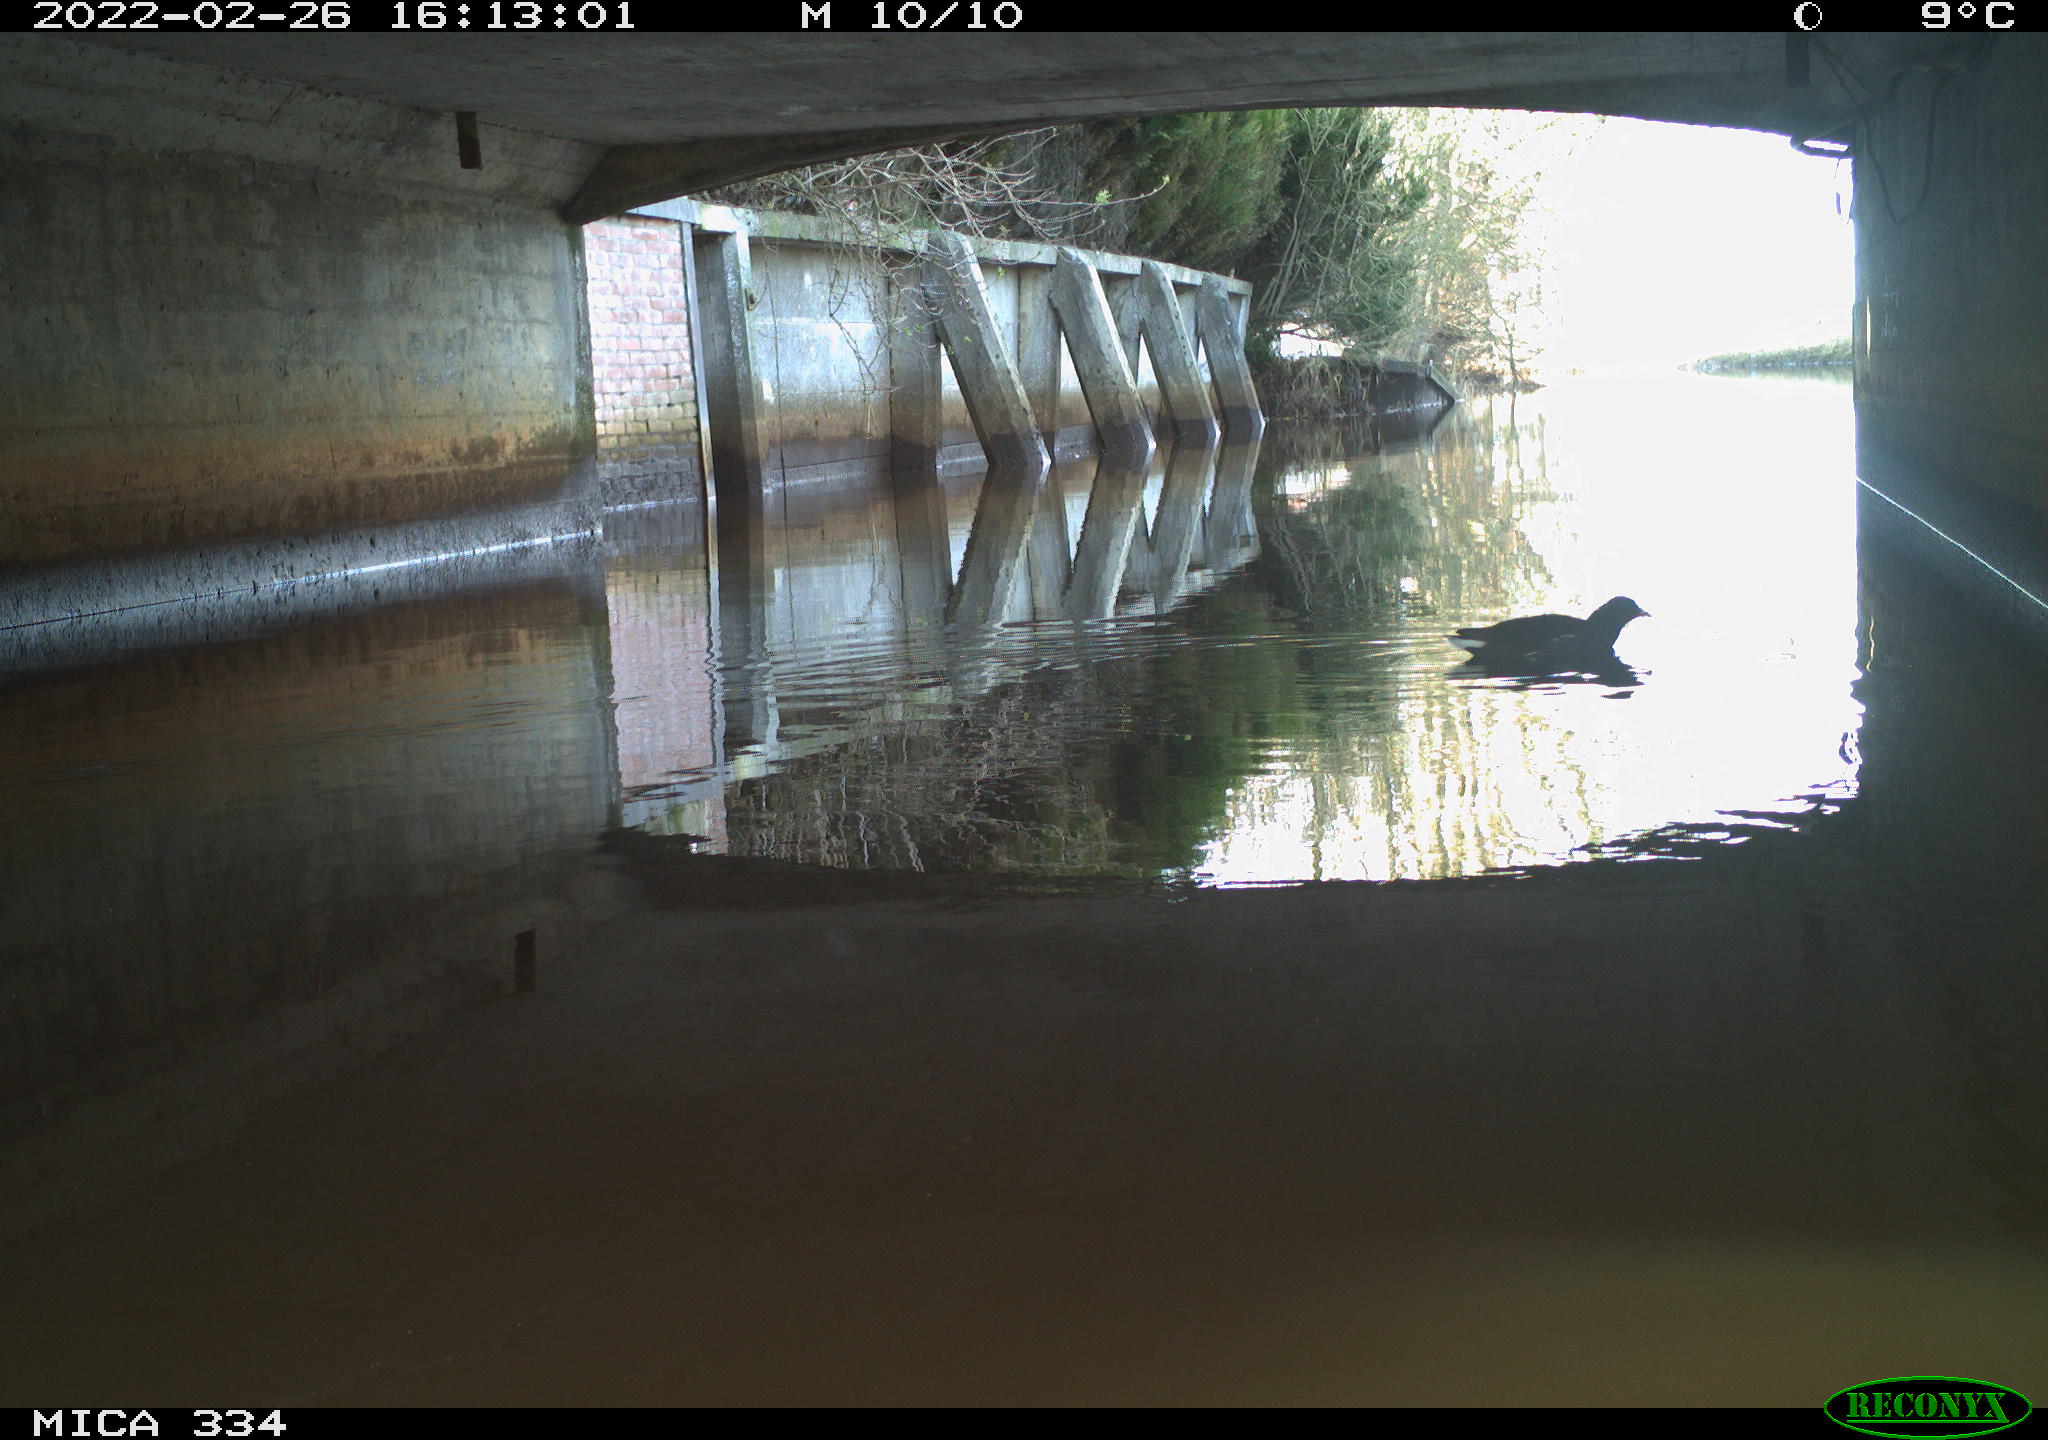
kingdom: Animalia
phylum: Chordata
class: Aves
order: Gruiformes
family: Rallidae
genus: Gallinula
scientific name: Gallinula chloropus
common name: Common moorhen
